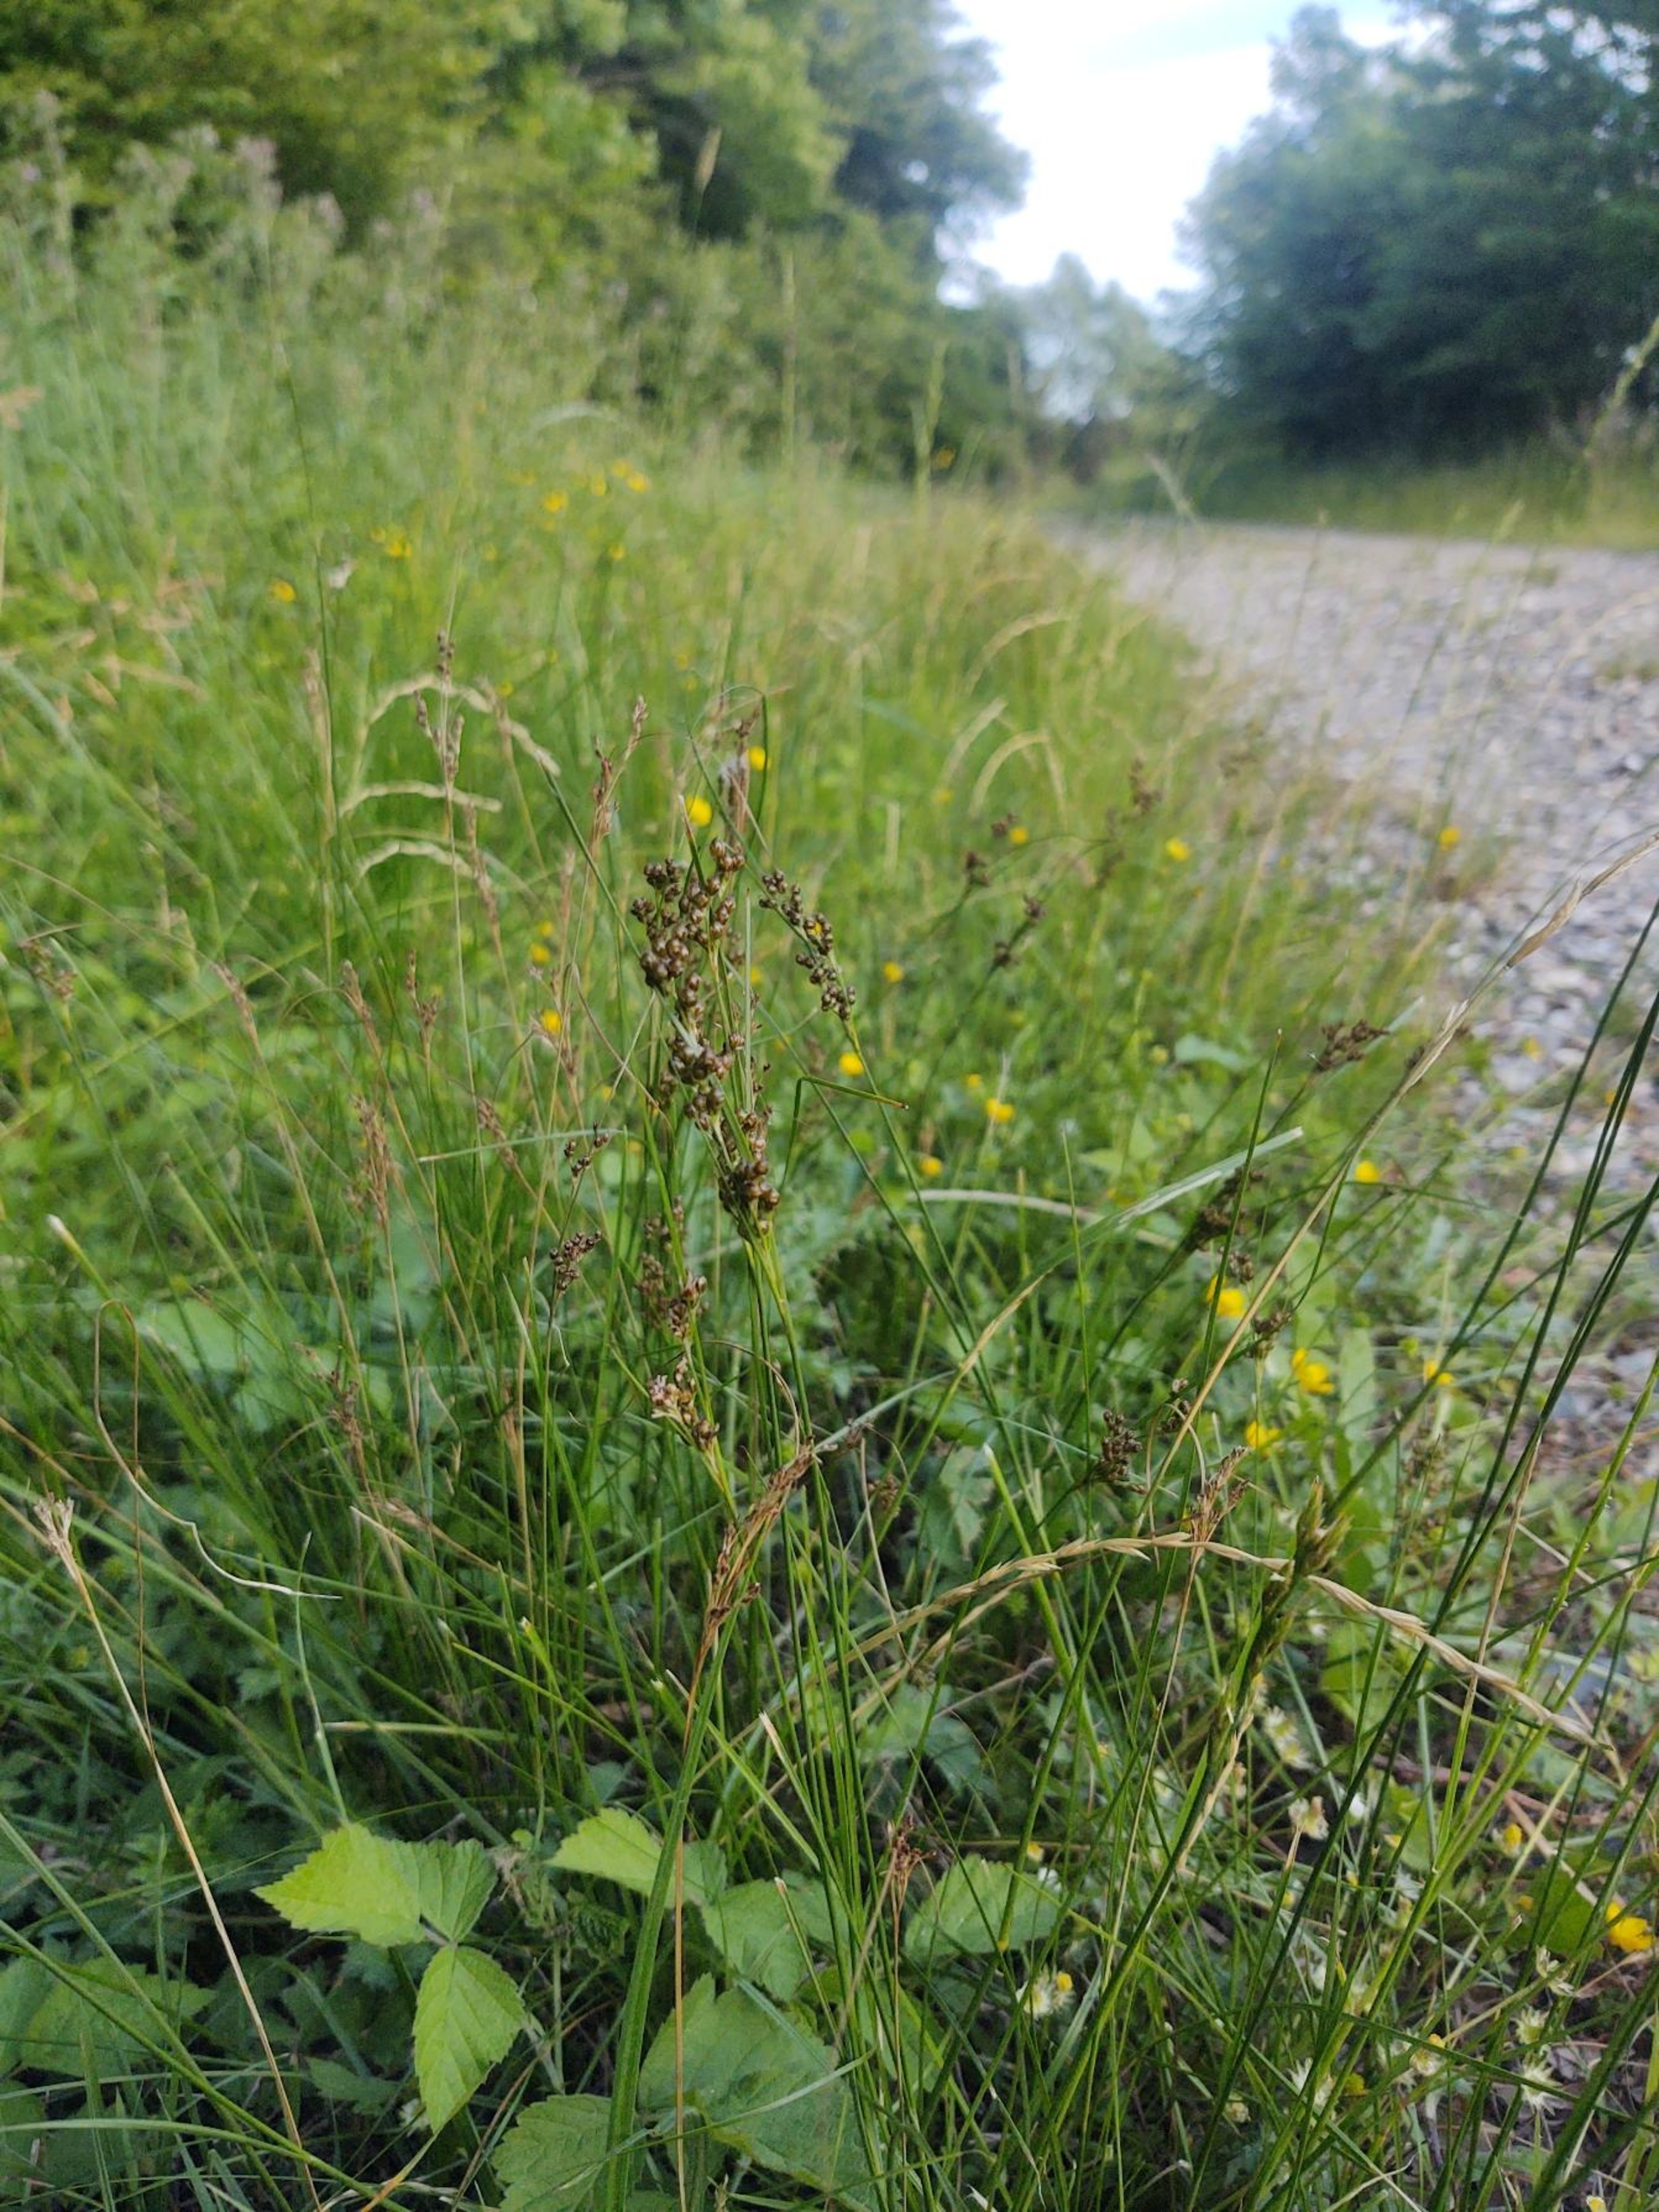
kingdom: Plantae
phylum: Tracheophyta
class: Liliopsida
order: Poales
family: Juncaceae
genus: Juncus
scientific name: Juncus compressus
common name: Fladstrået siv
